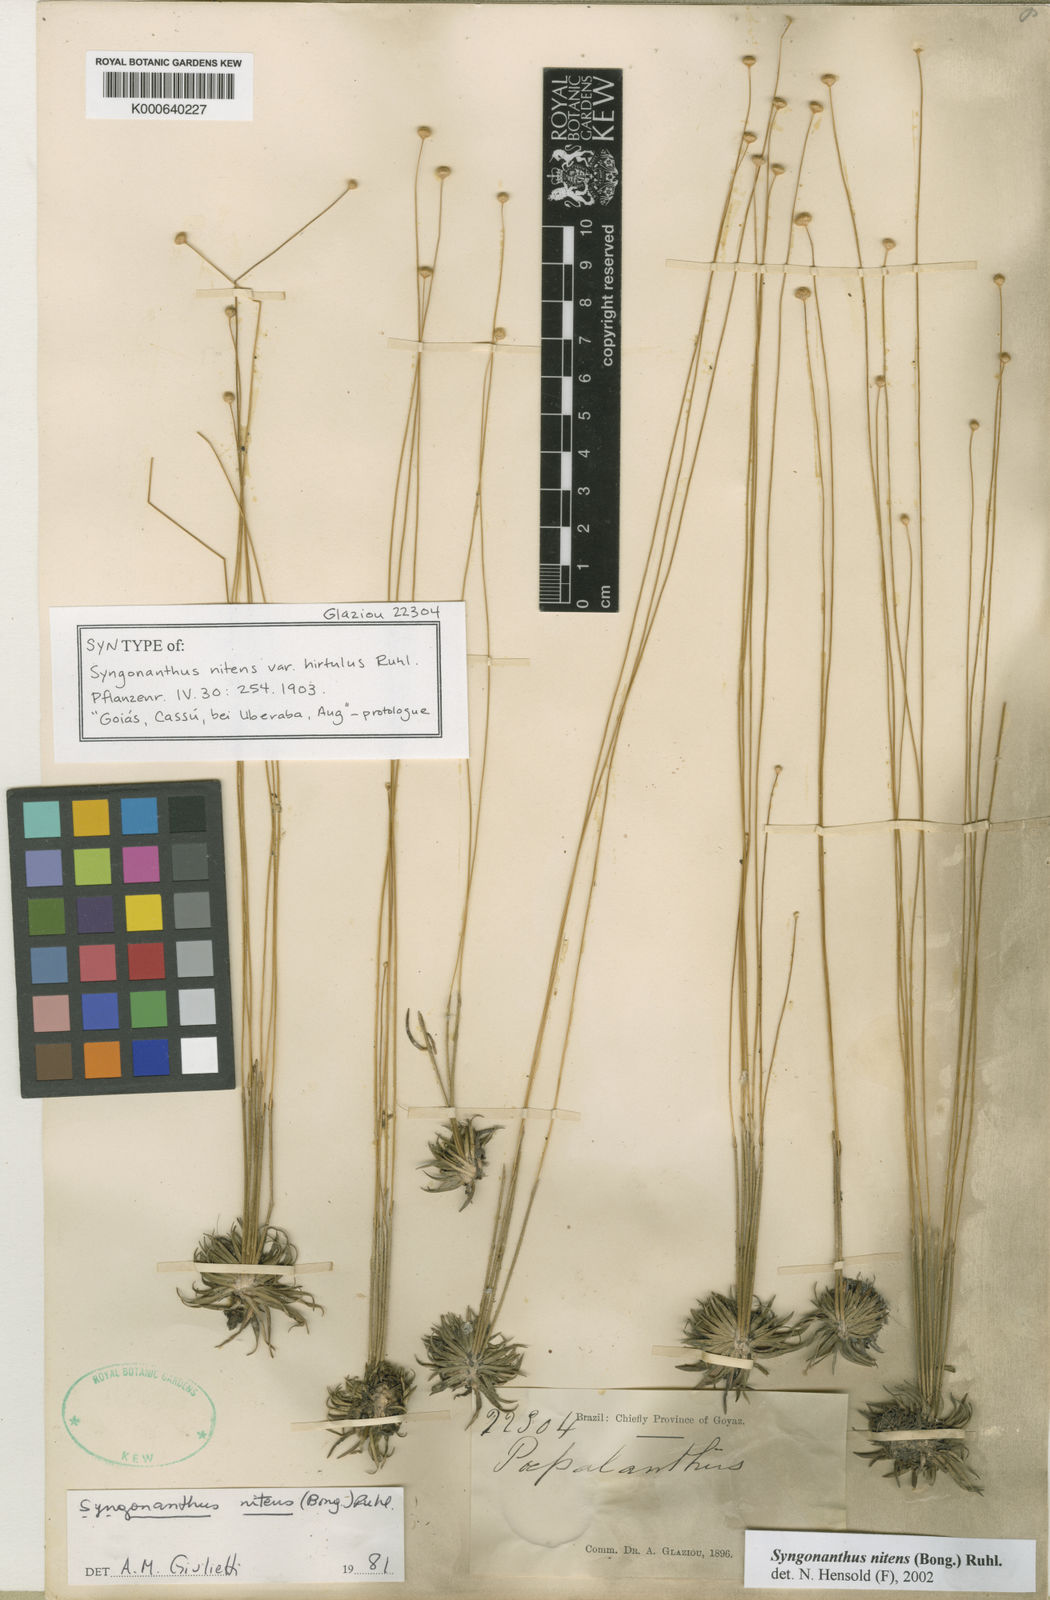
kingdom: Plantae
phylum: Tracheophyta
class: Liliopsida
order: Poales
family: Eriocaulaceae
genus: Syngonanthus
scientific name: Syngonanthus nitens
